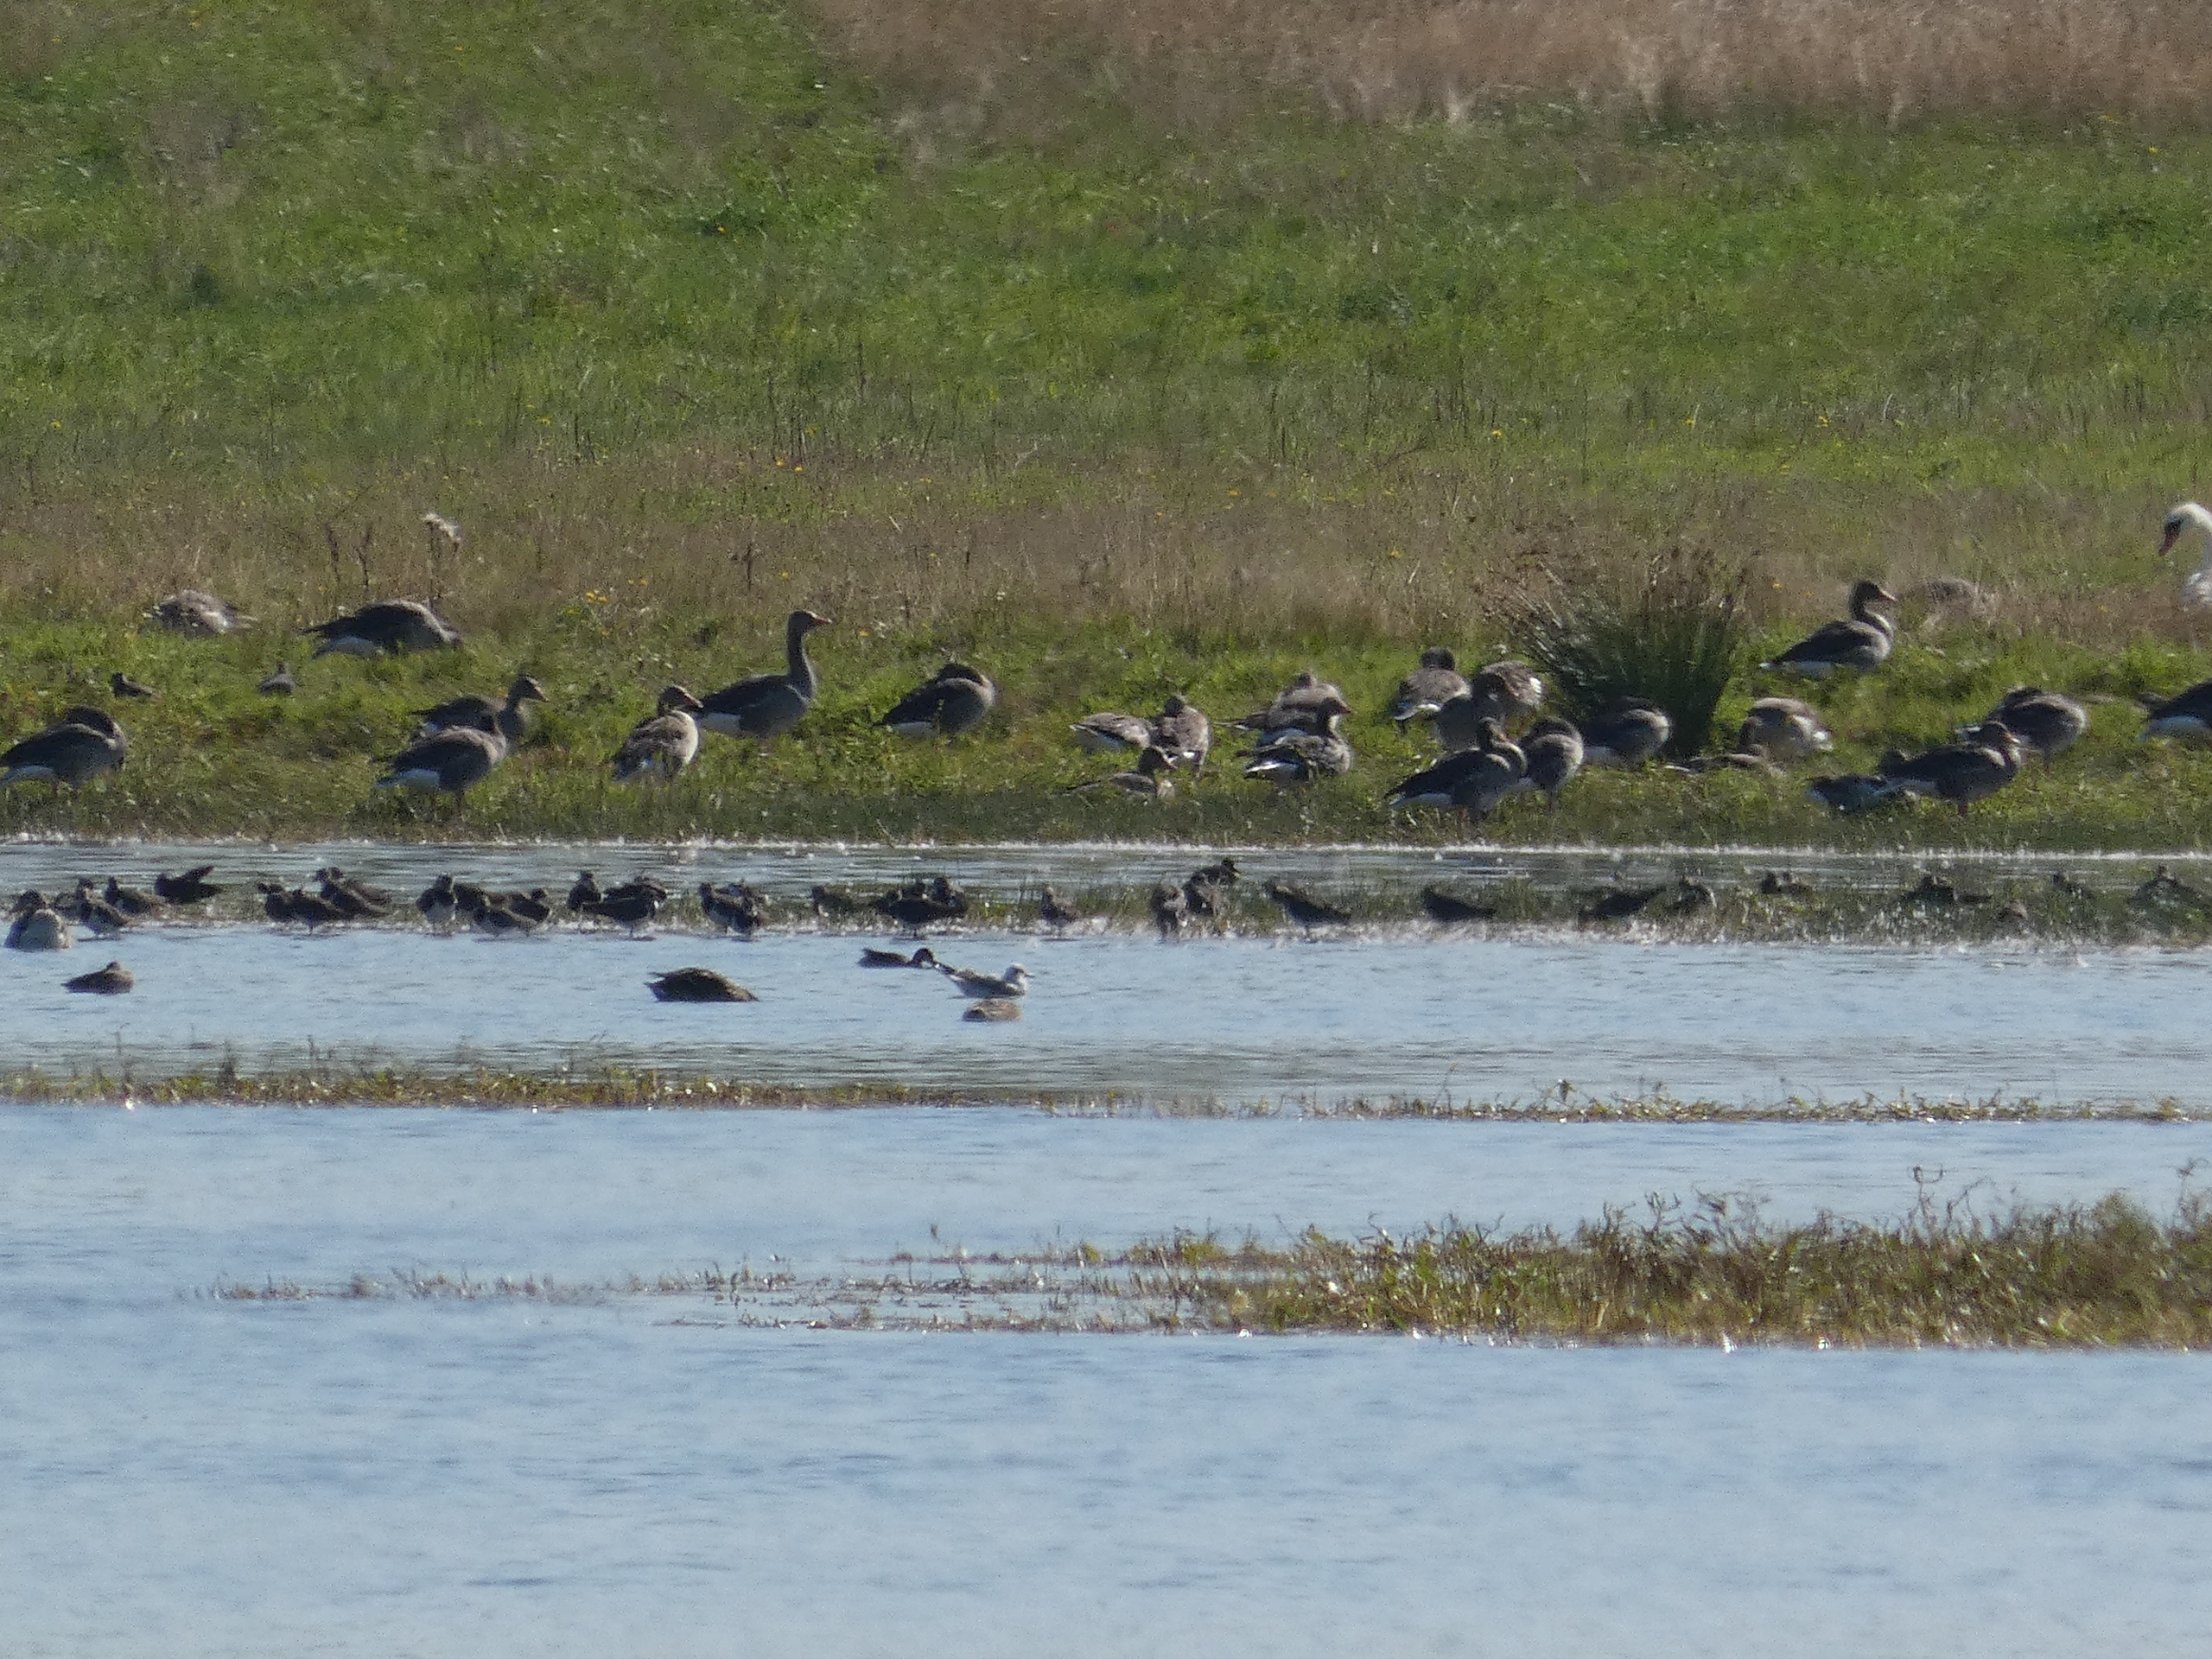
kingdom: Animalia
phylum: Chordata
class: Aves
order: Anseriformes
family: Anatidae
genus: Cygnus
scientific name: Cygnus olor
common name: Knopsvane
